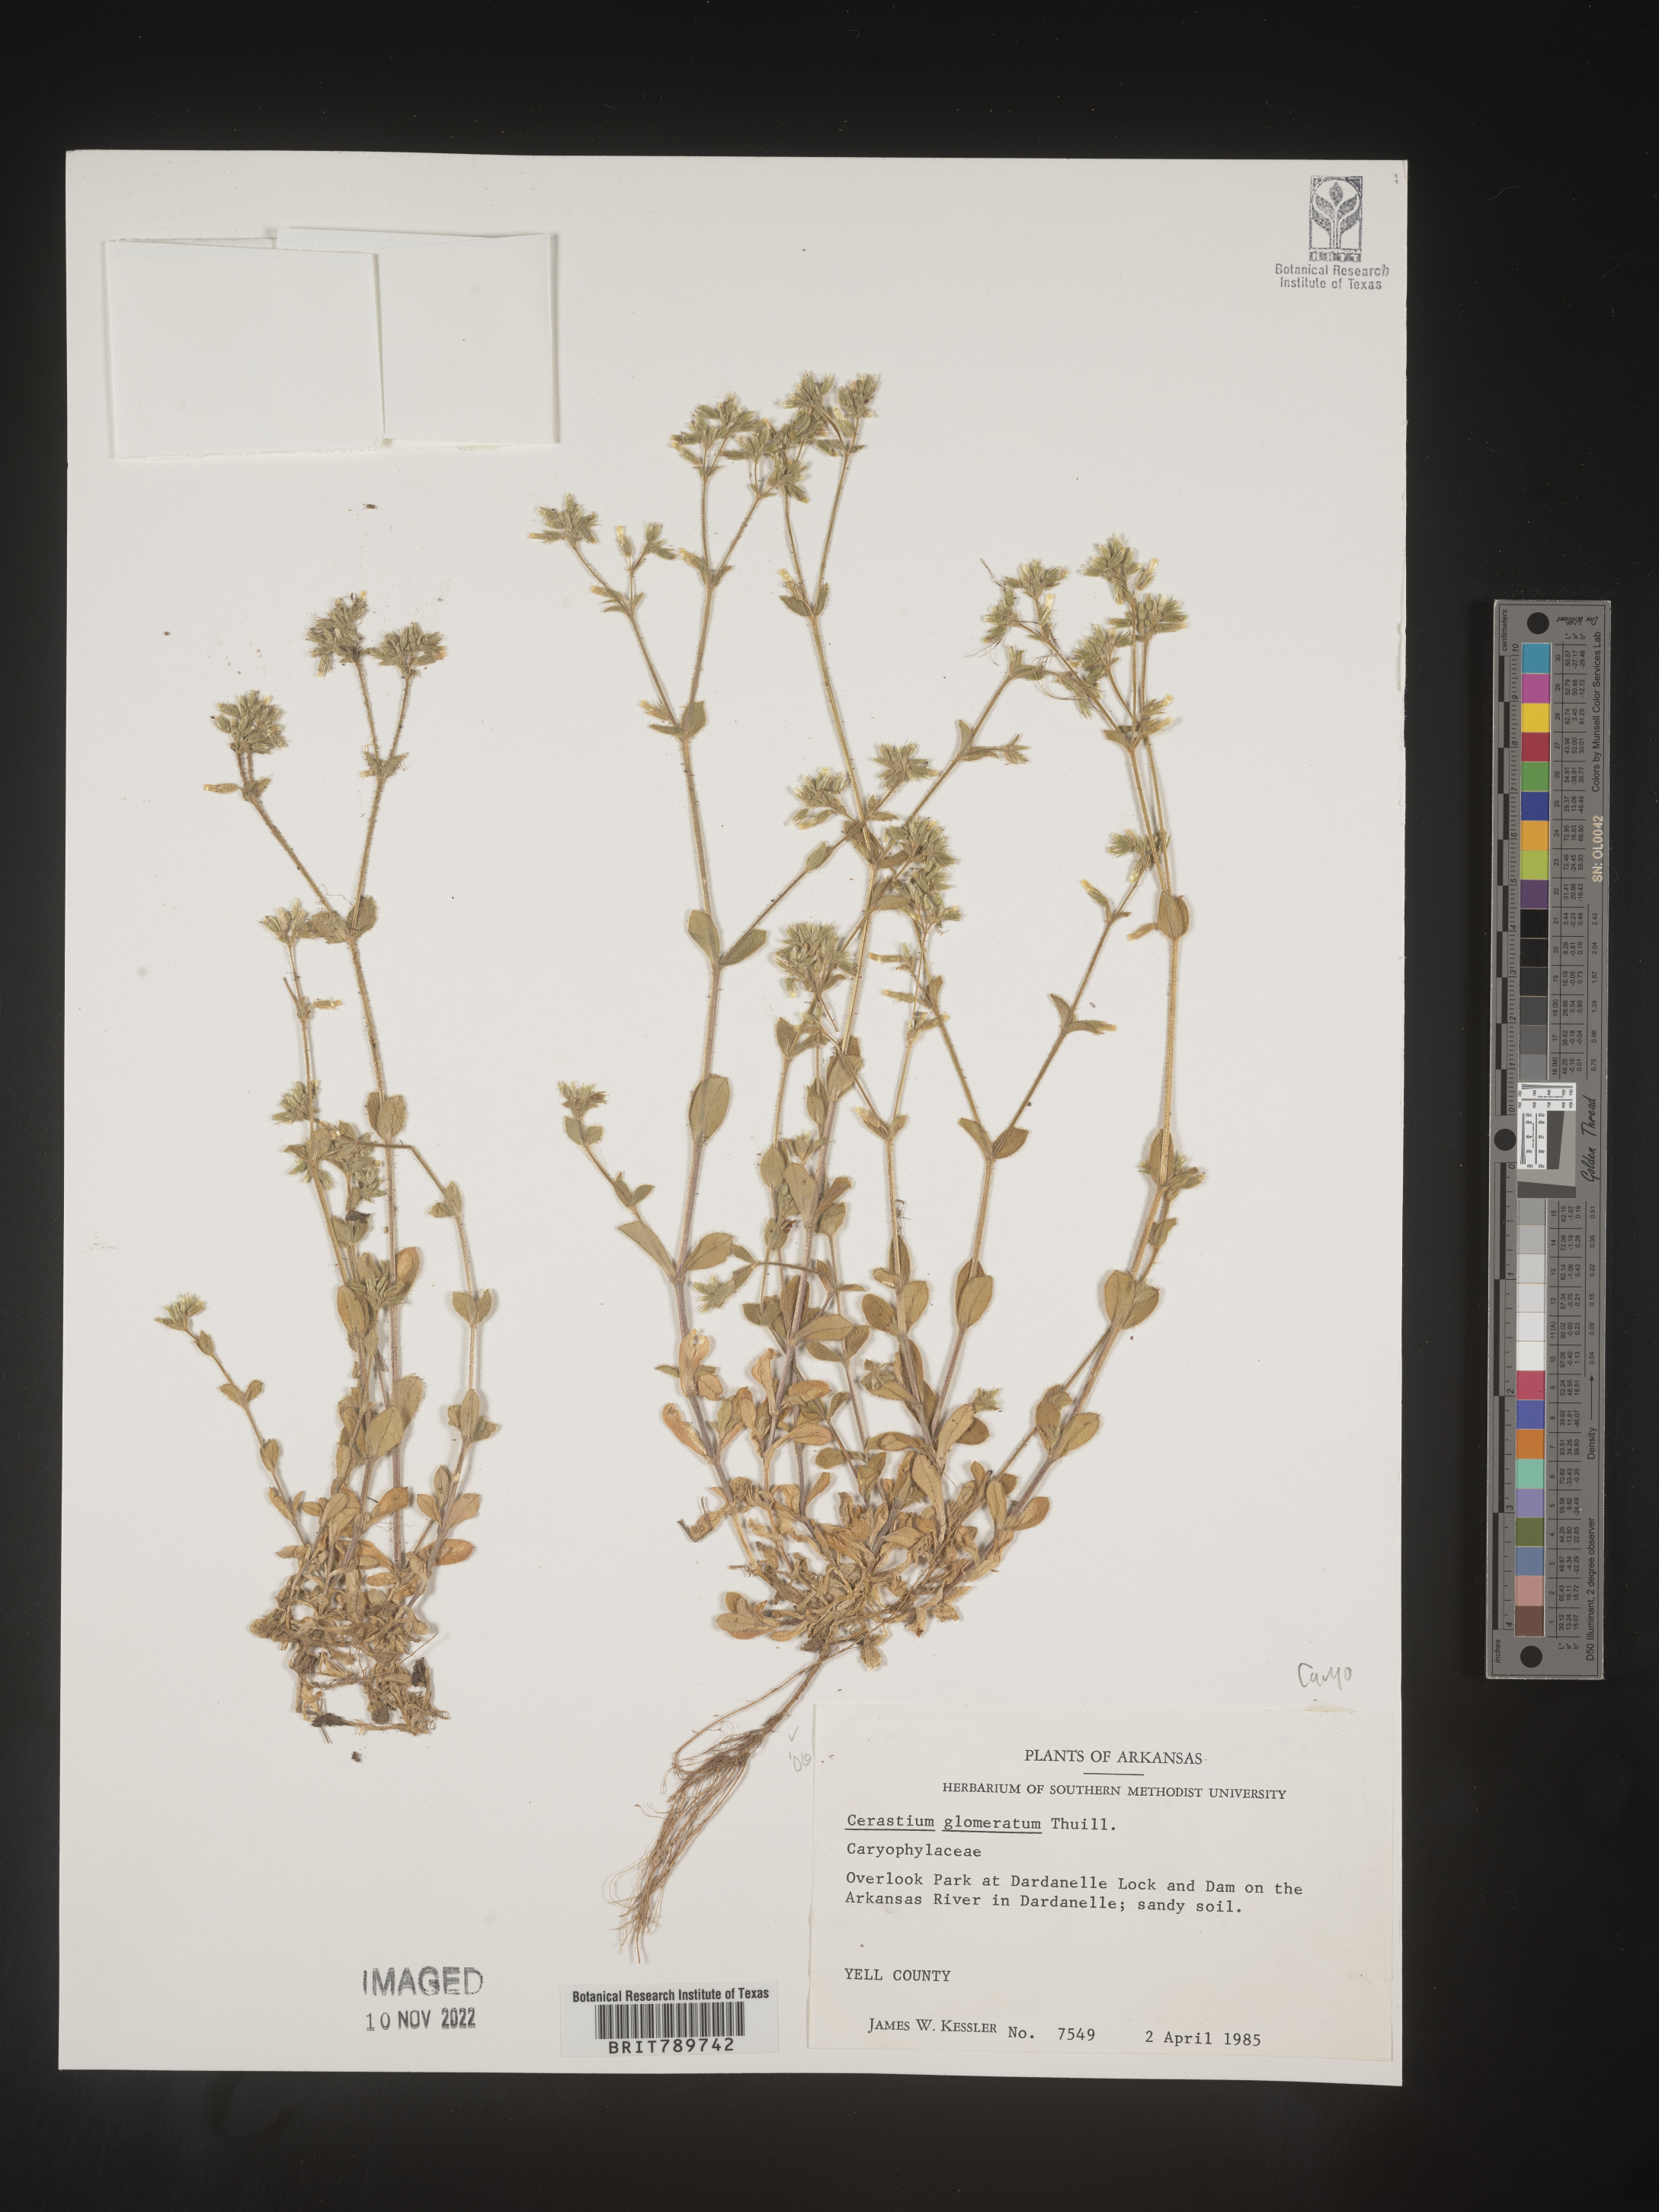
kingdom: Plantae
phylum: Tracheophyta
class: Magnoliopsida
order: Caryophyllales
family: Caryophyllaceae
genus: Cerastium
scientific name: Cerastium glomeratum
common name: Sticky chickweed
